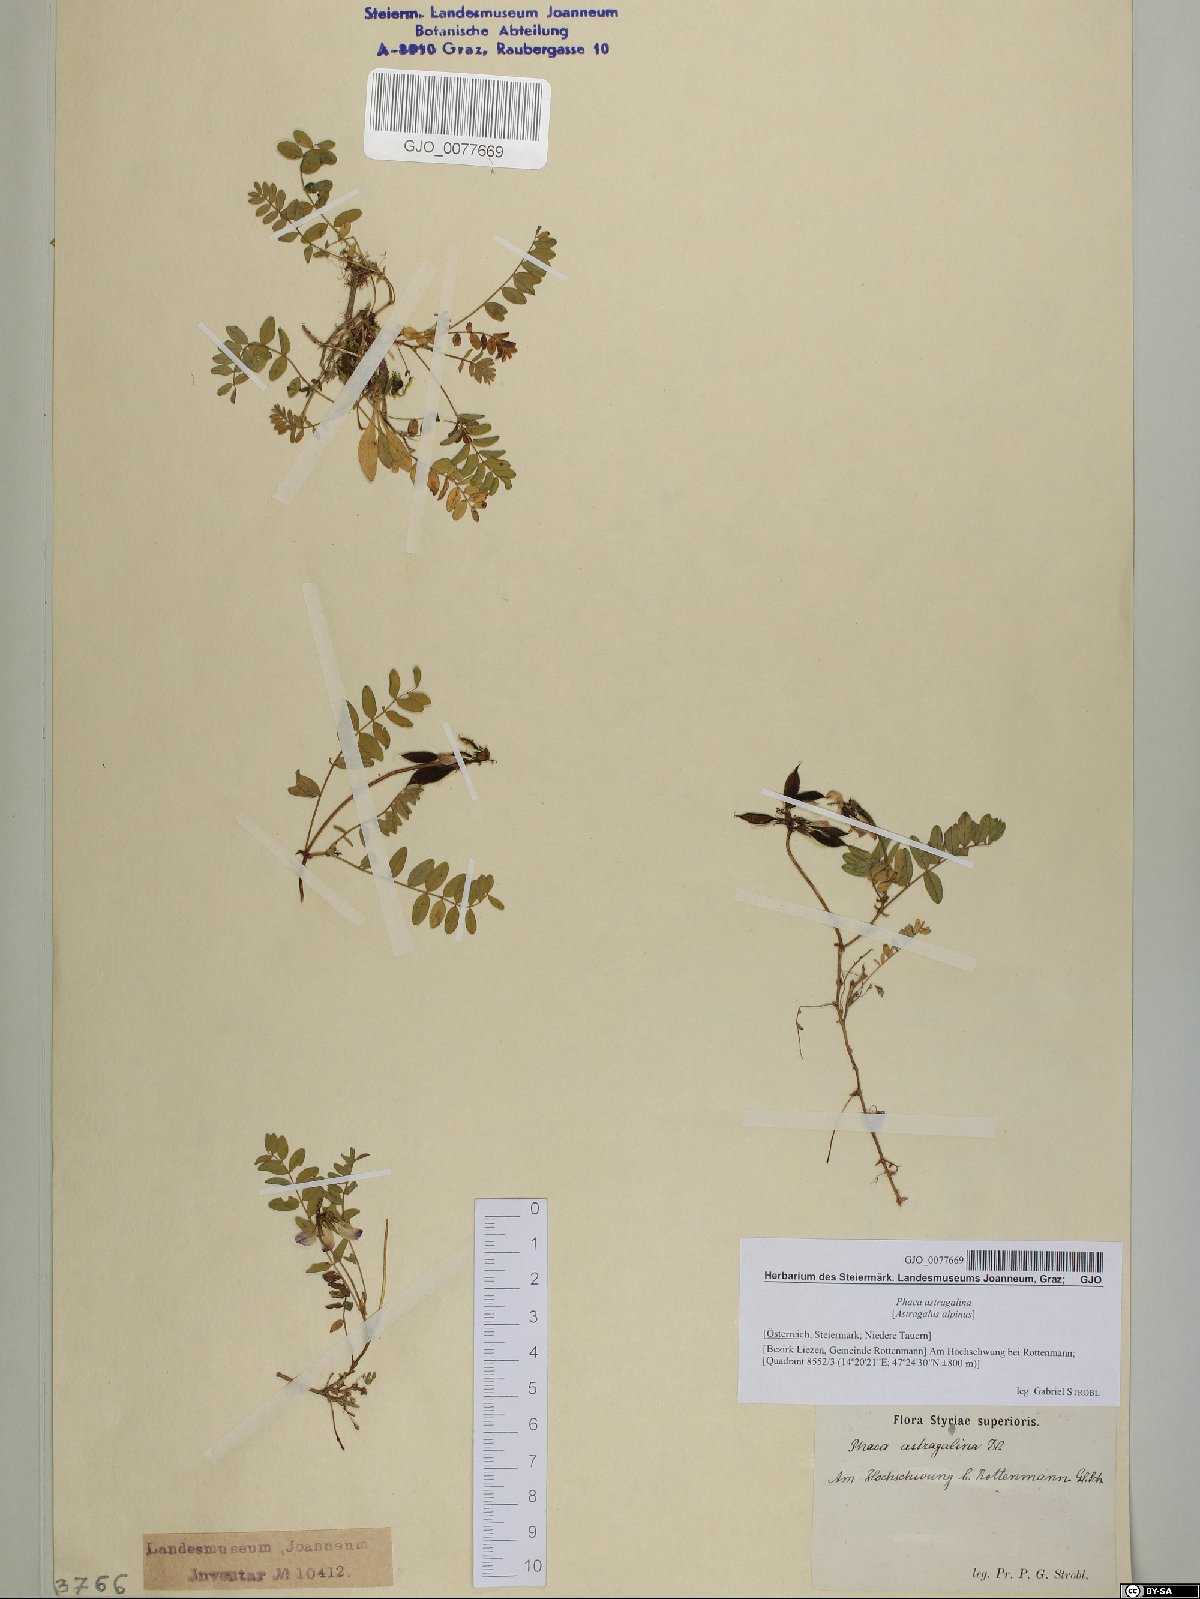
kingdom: Plantae
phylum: Tracheophyta
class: Magnoliopsida
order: Fabales
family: Fabaceae
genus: Astragalus
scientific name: Astragalus alpinus
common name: Alpine milk-vetch
